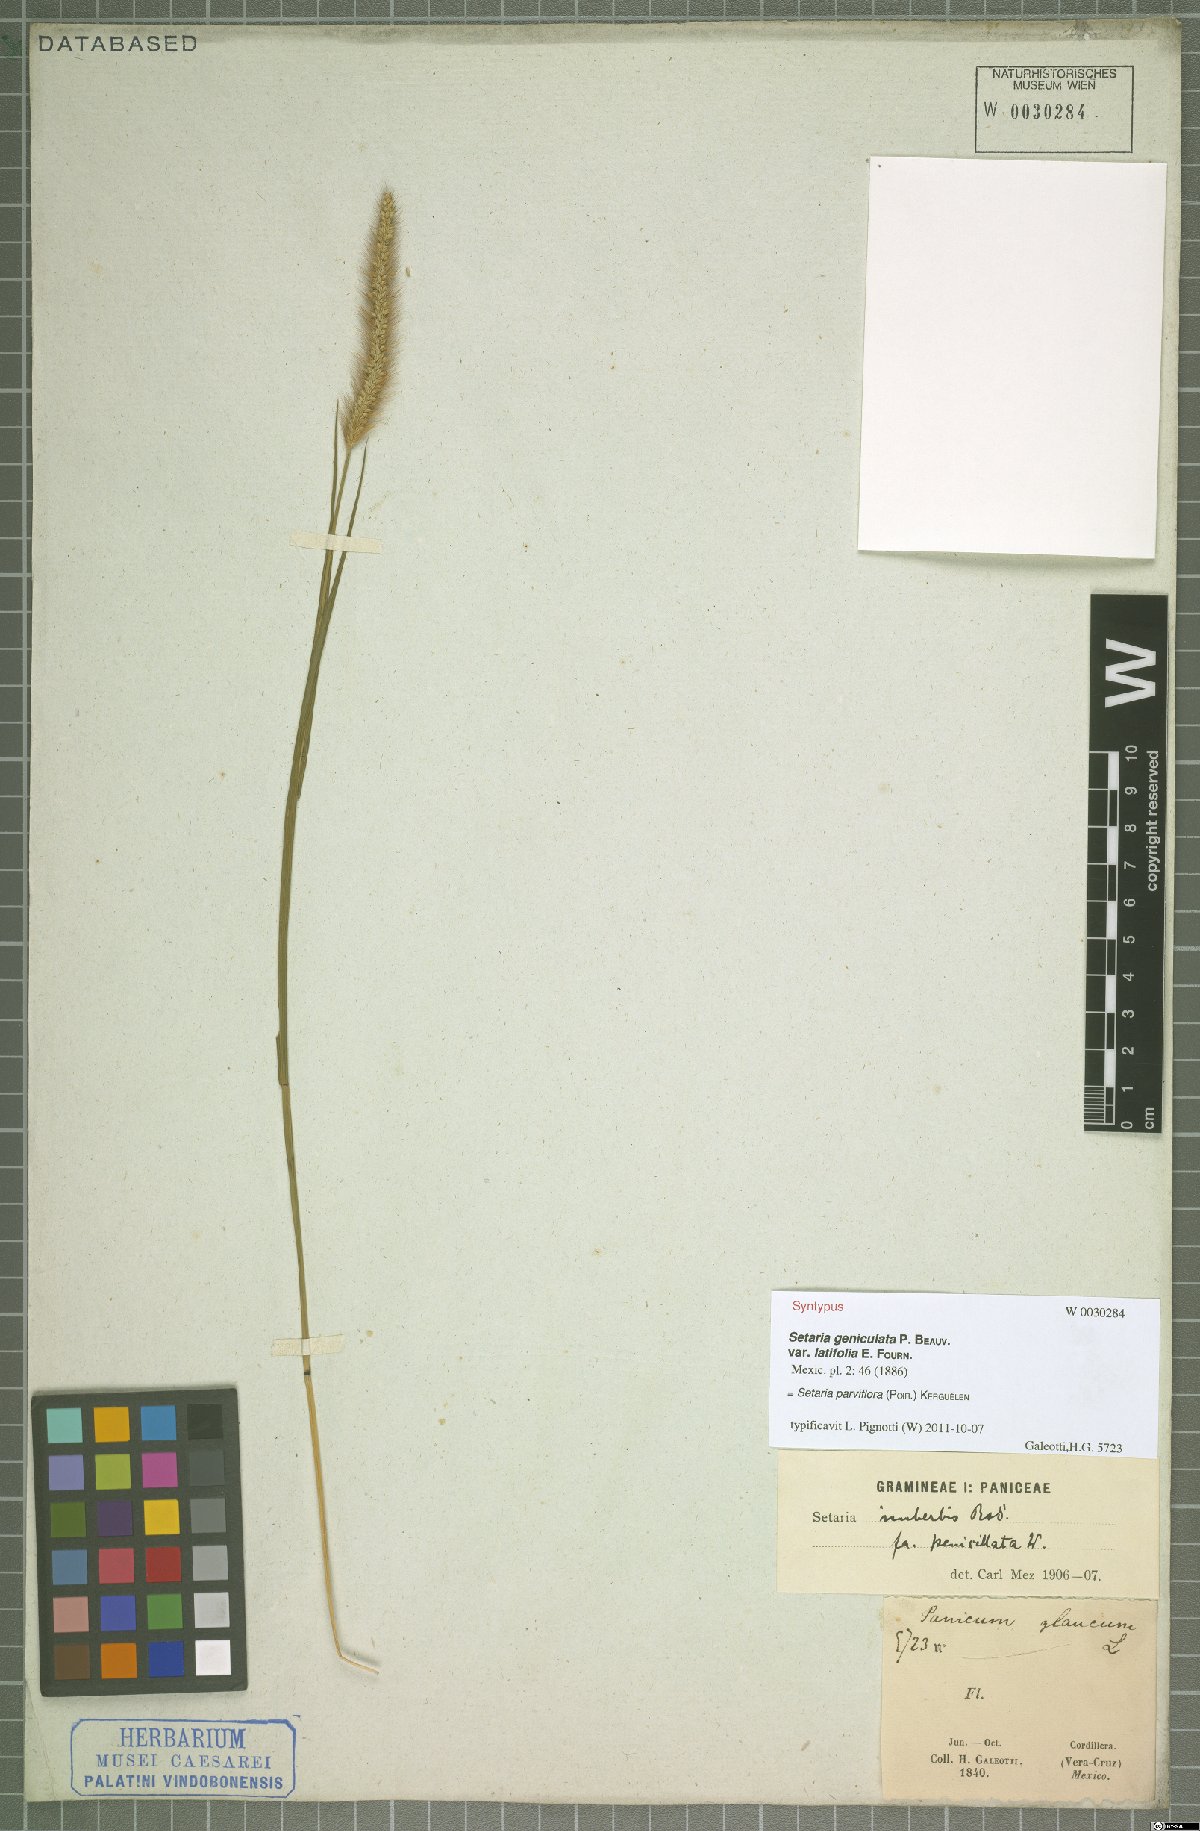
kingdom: Plantae
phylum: Tracheophyta
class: Liliopsida
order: Poales
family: Poaceae
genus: Setaria
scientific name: Setaria parviflora
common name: Knotroot bristle-grass
